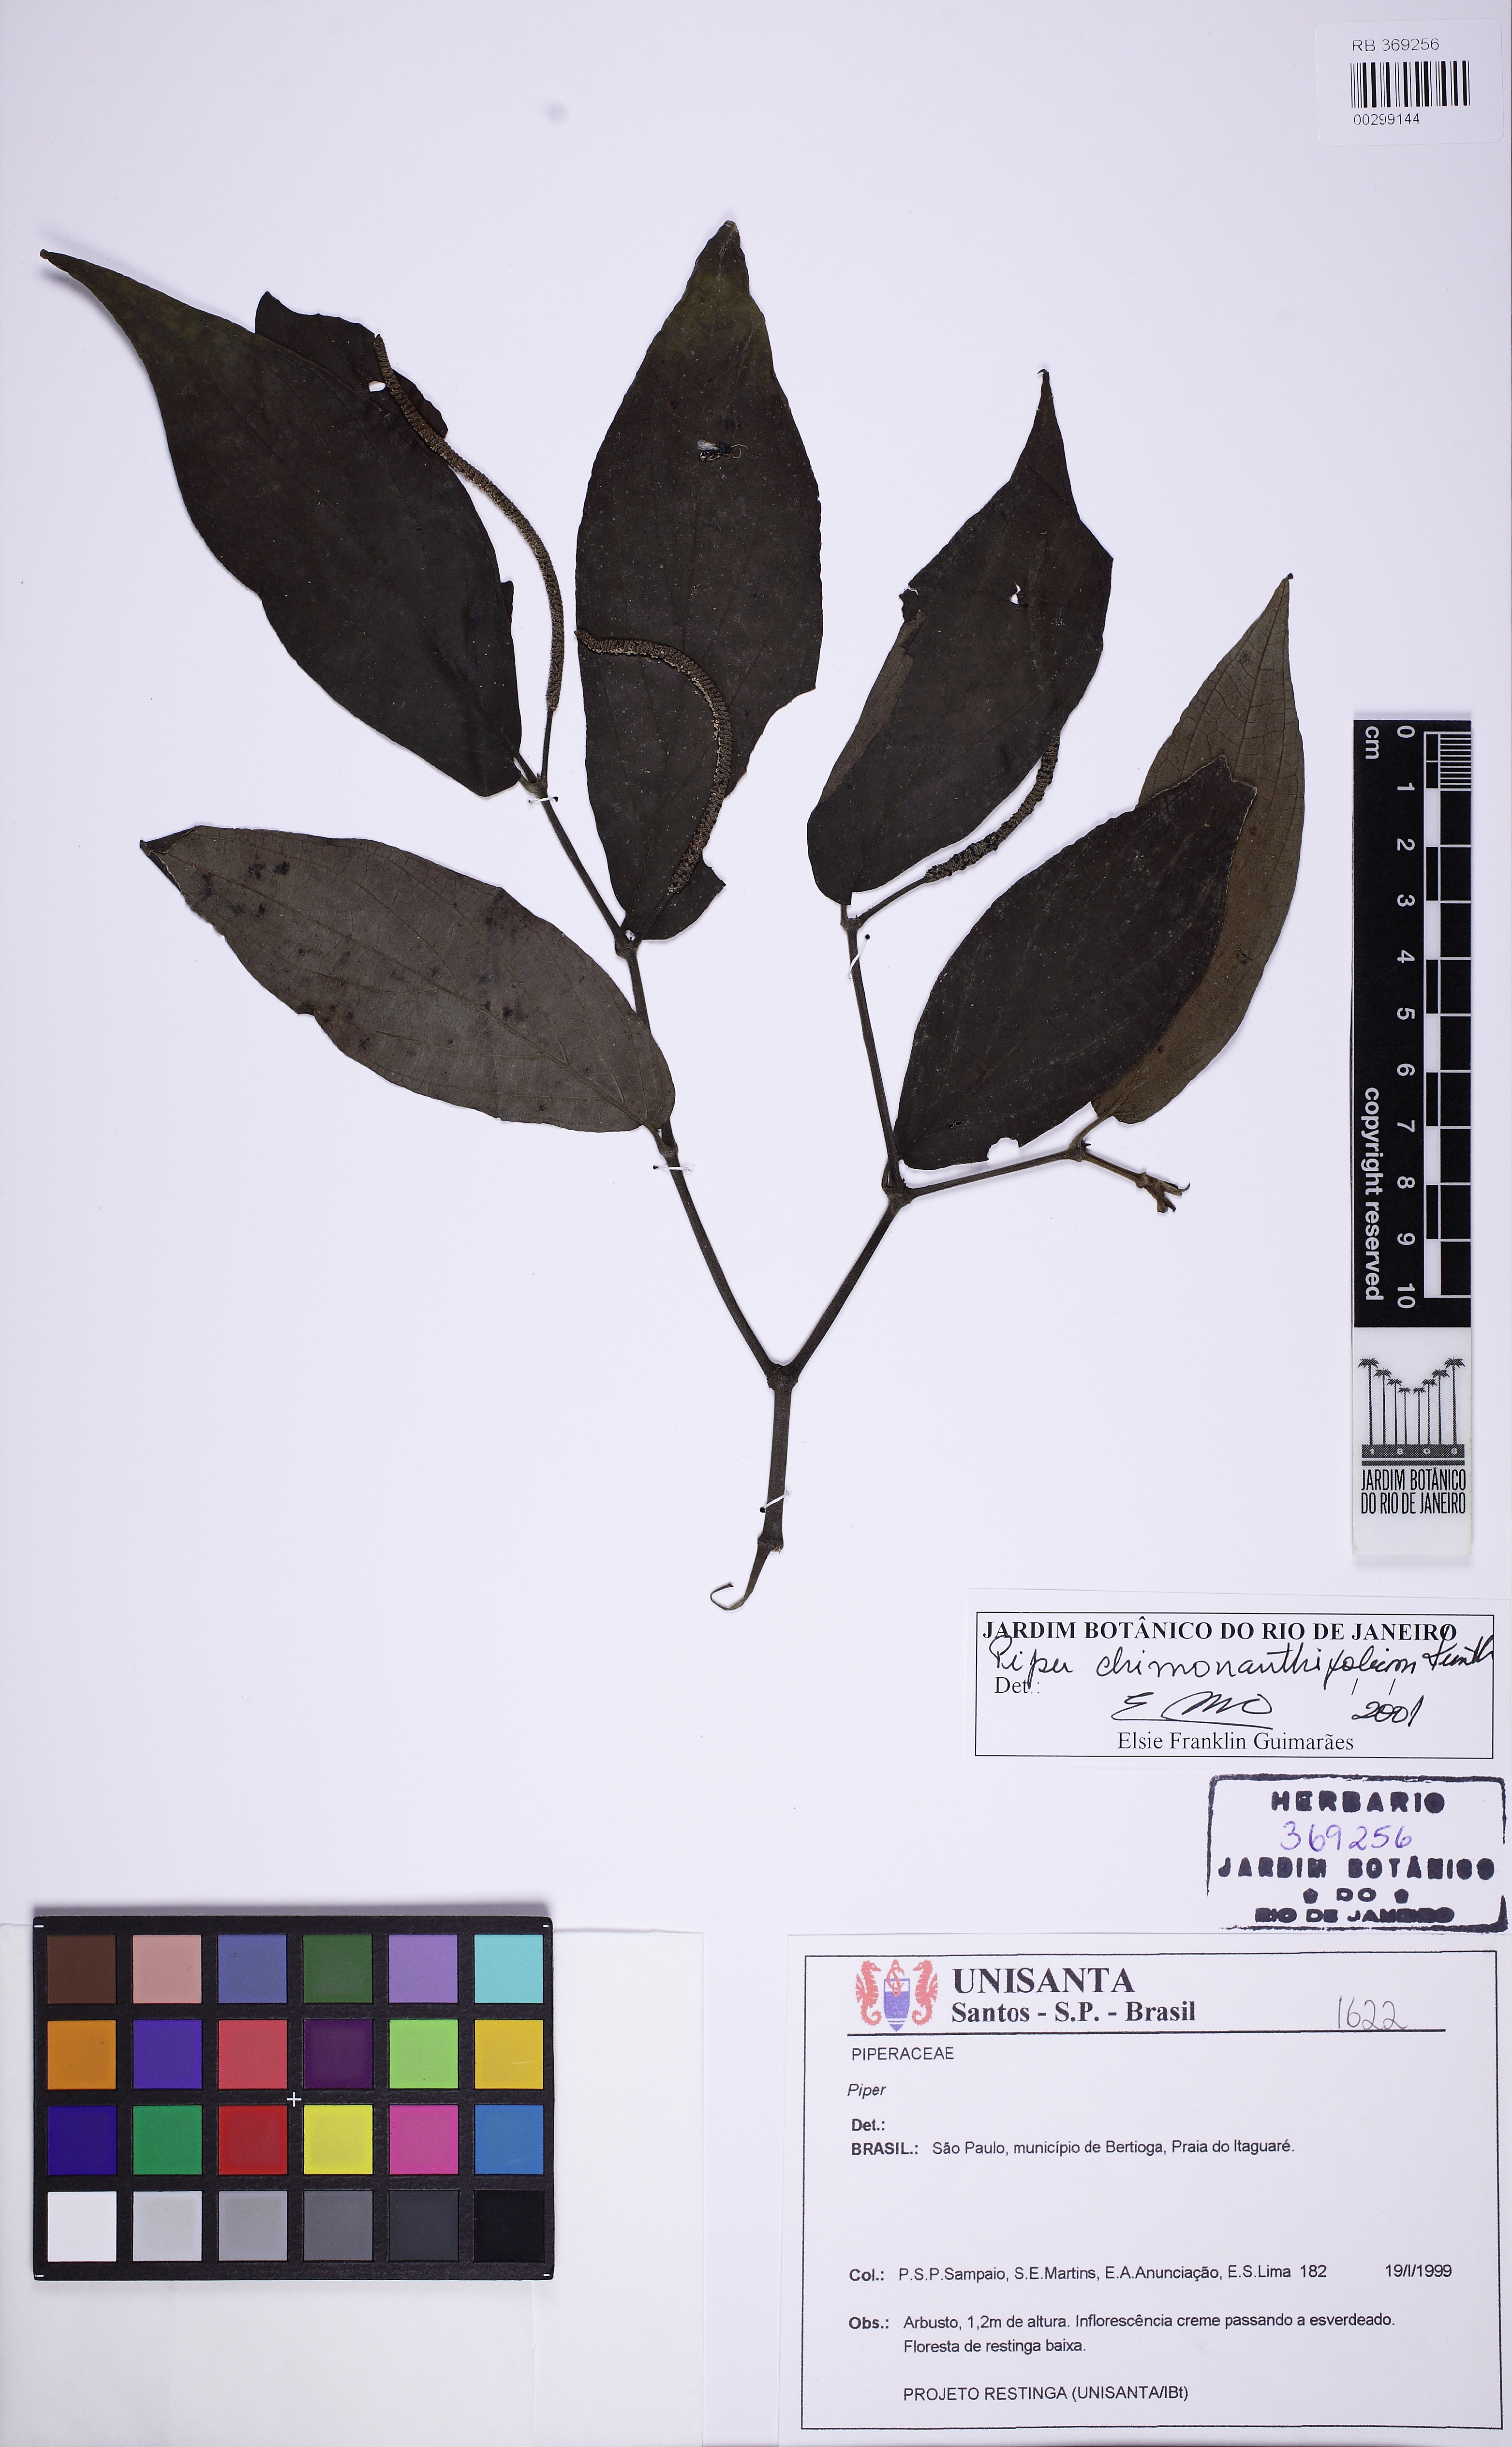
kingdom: Plantae
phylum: Tracheophyta
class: Magnoliopsida
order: Piperales
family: Piperaceae
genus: Piper
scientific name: Piper chimonanthifolium
